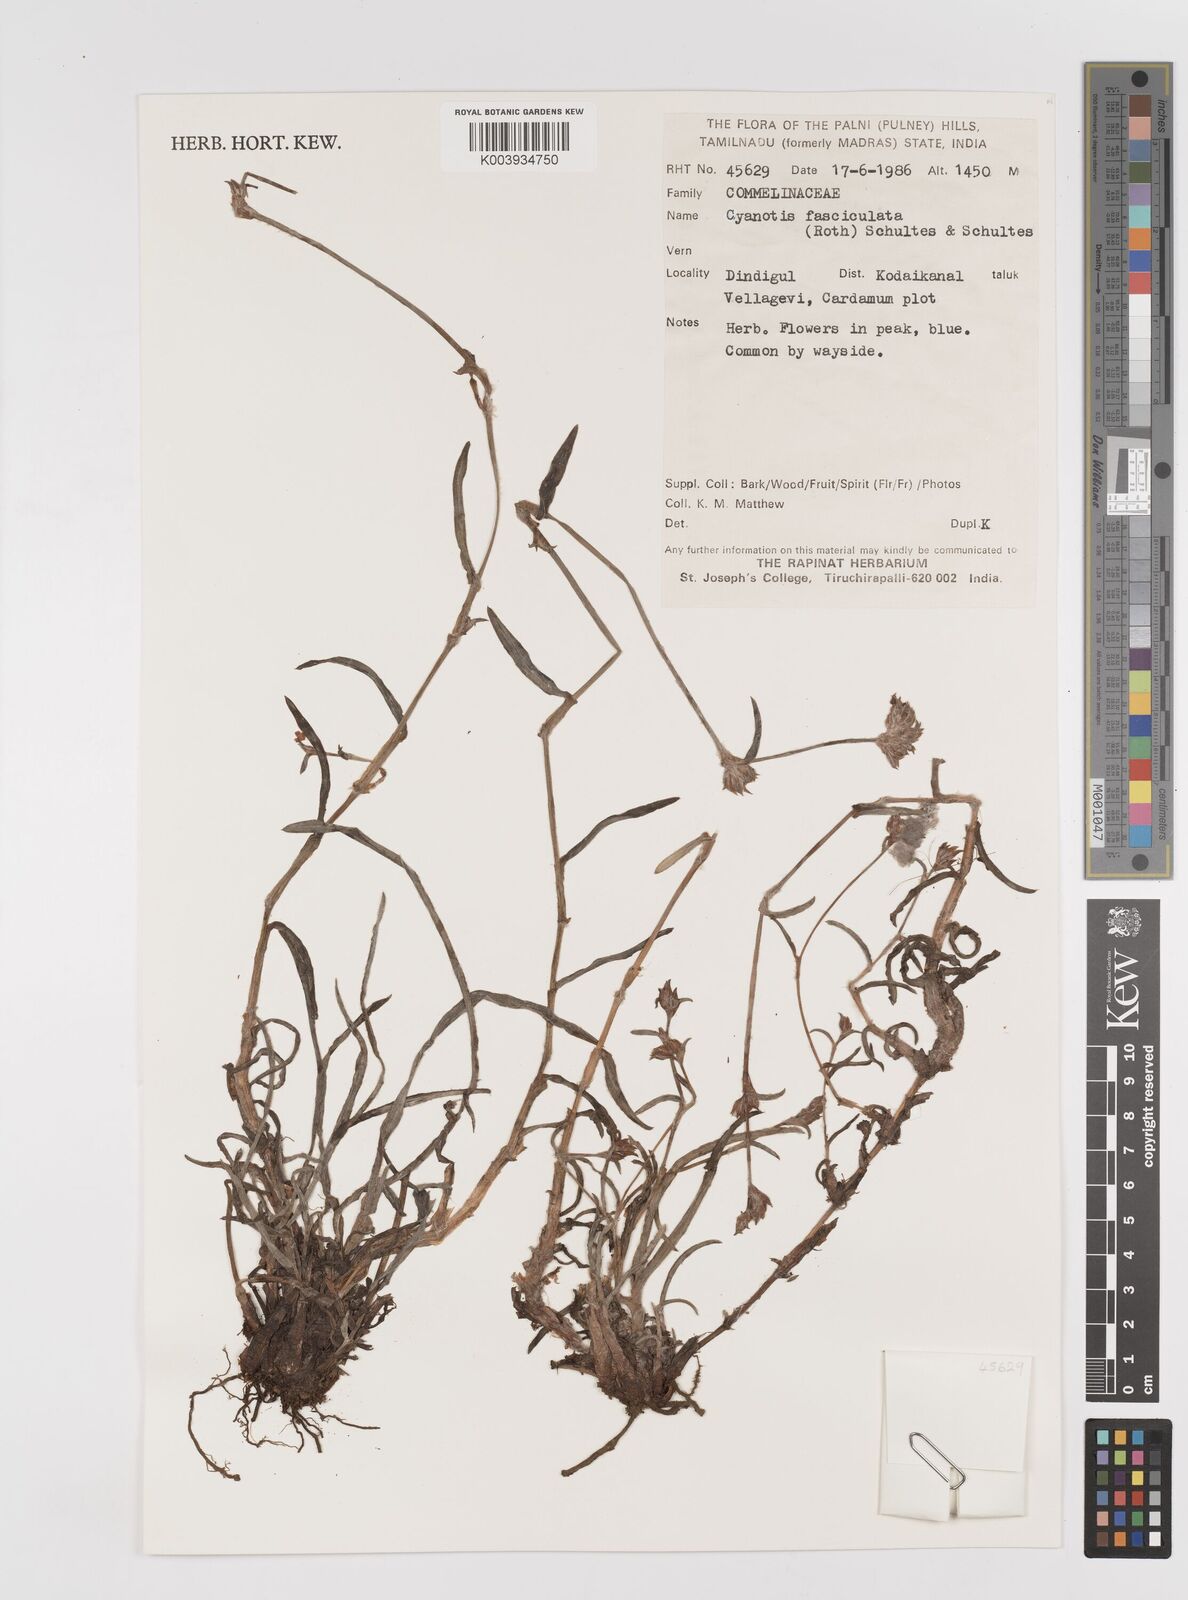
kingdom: Plantae
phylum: Tracheophyta
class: Liliopsida
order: Commelinales
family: Commelinaceae
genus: Cyanotis
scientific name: Cyanotis fasciculata
